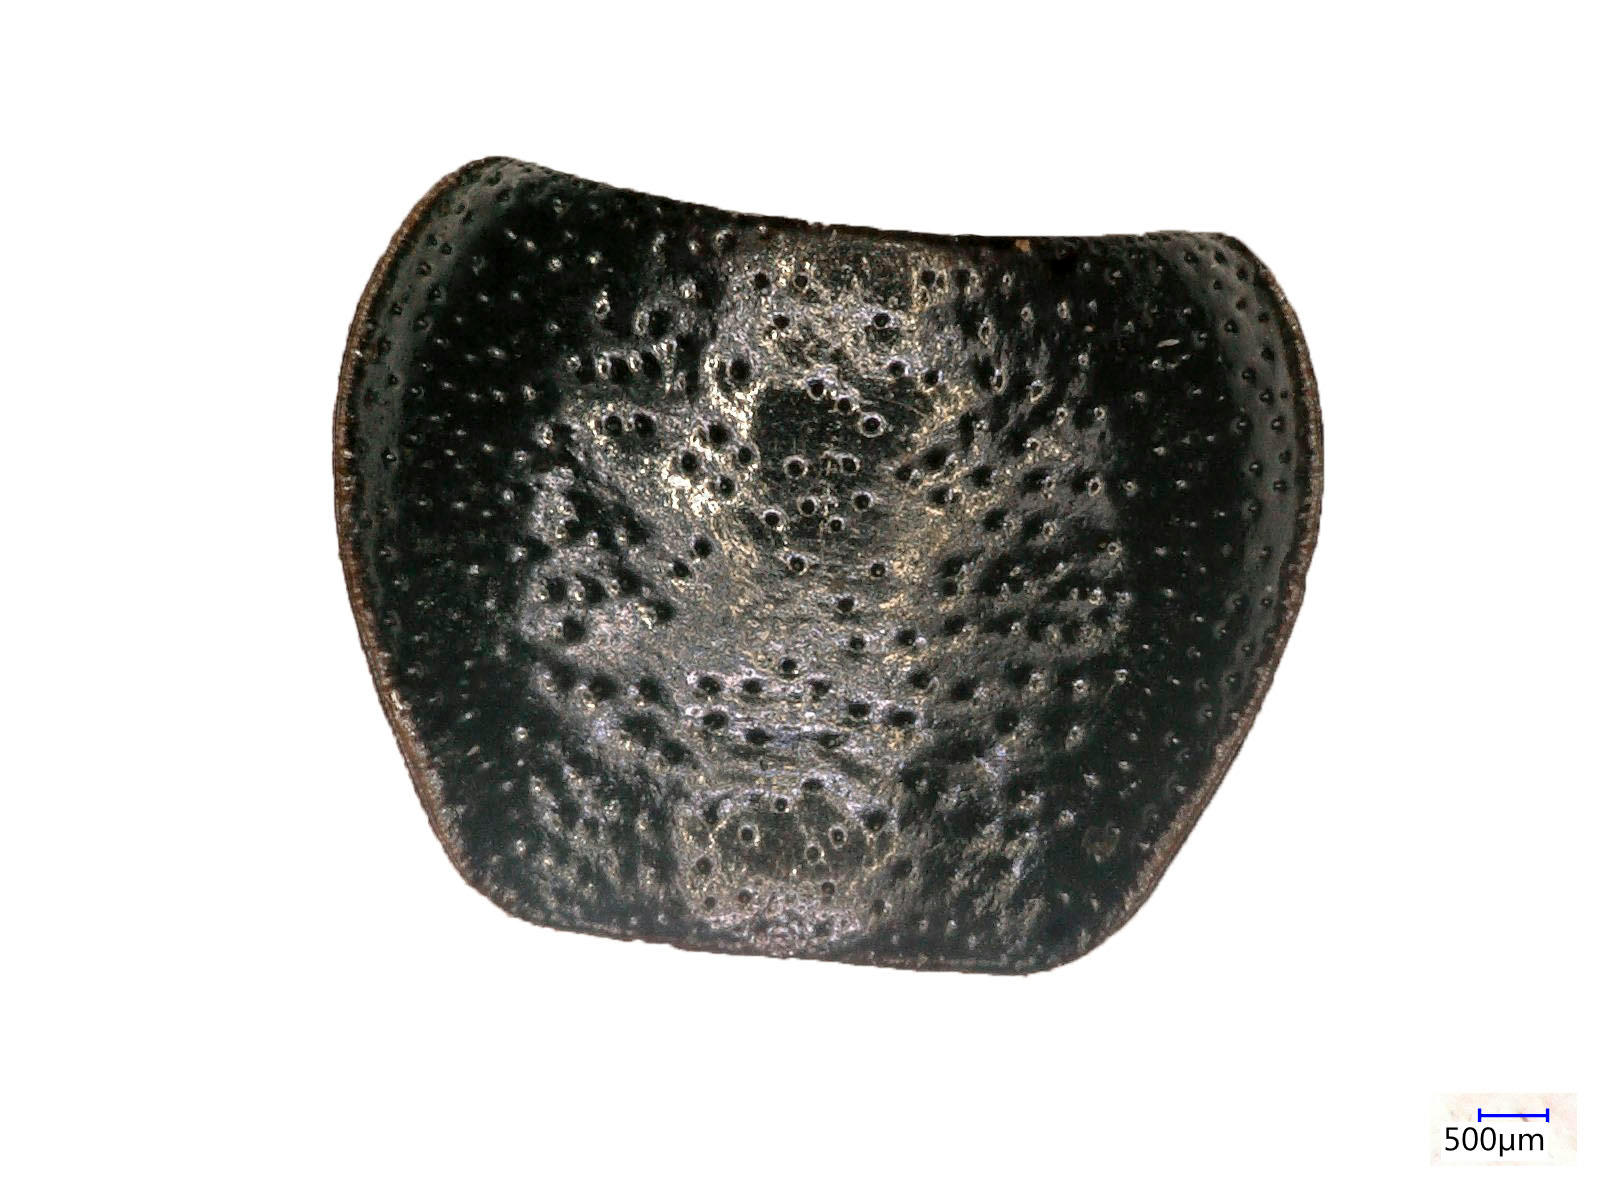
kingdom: Animalia
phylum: Arthropoda
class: Insecta
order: Coleoptera
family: Carabidae
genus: Dicheirus
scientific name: Dicheirus dilatatus
